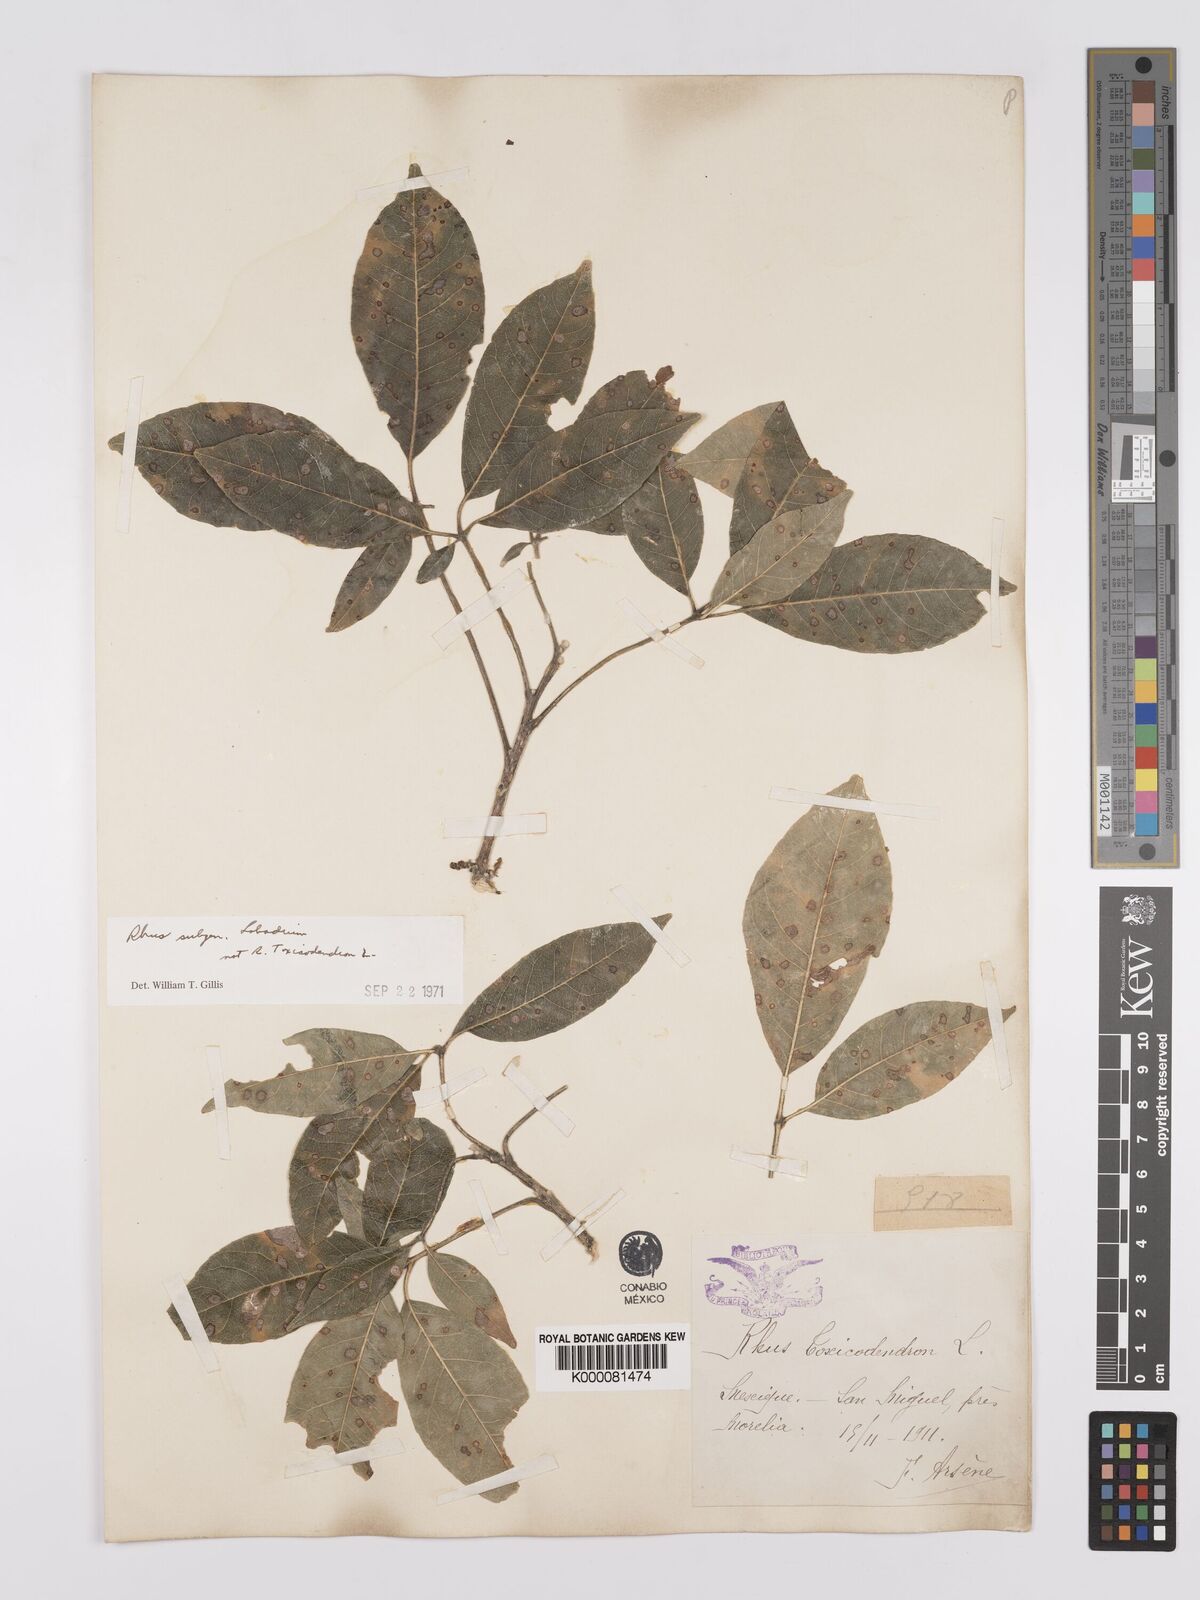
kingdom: Plantae
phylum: Tracheophyta
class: Magnoliopsida
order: Sapindales
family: Anacardiaceae
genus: Rhus
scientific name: Rhus
